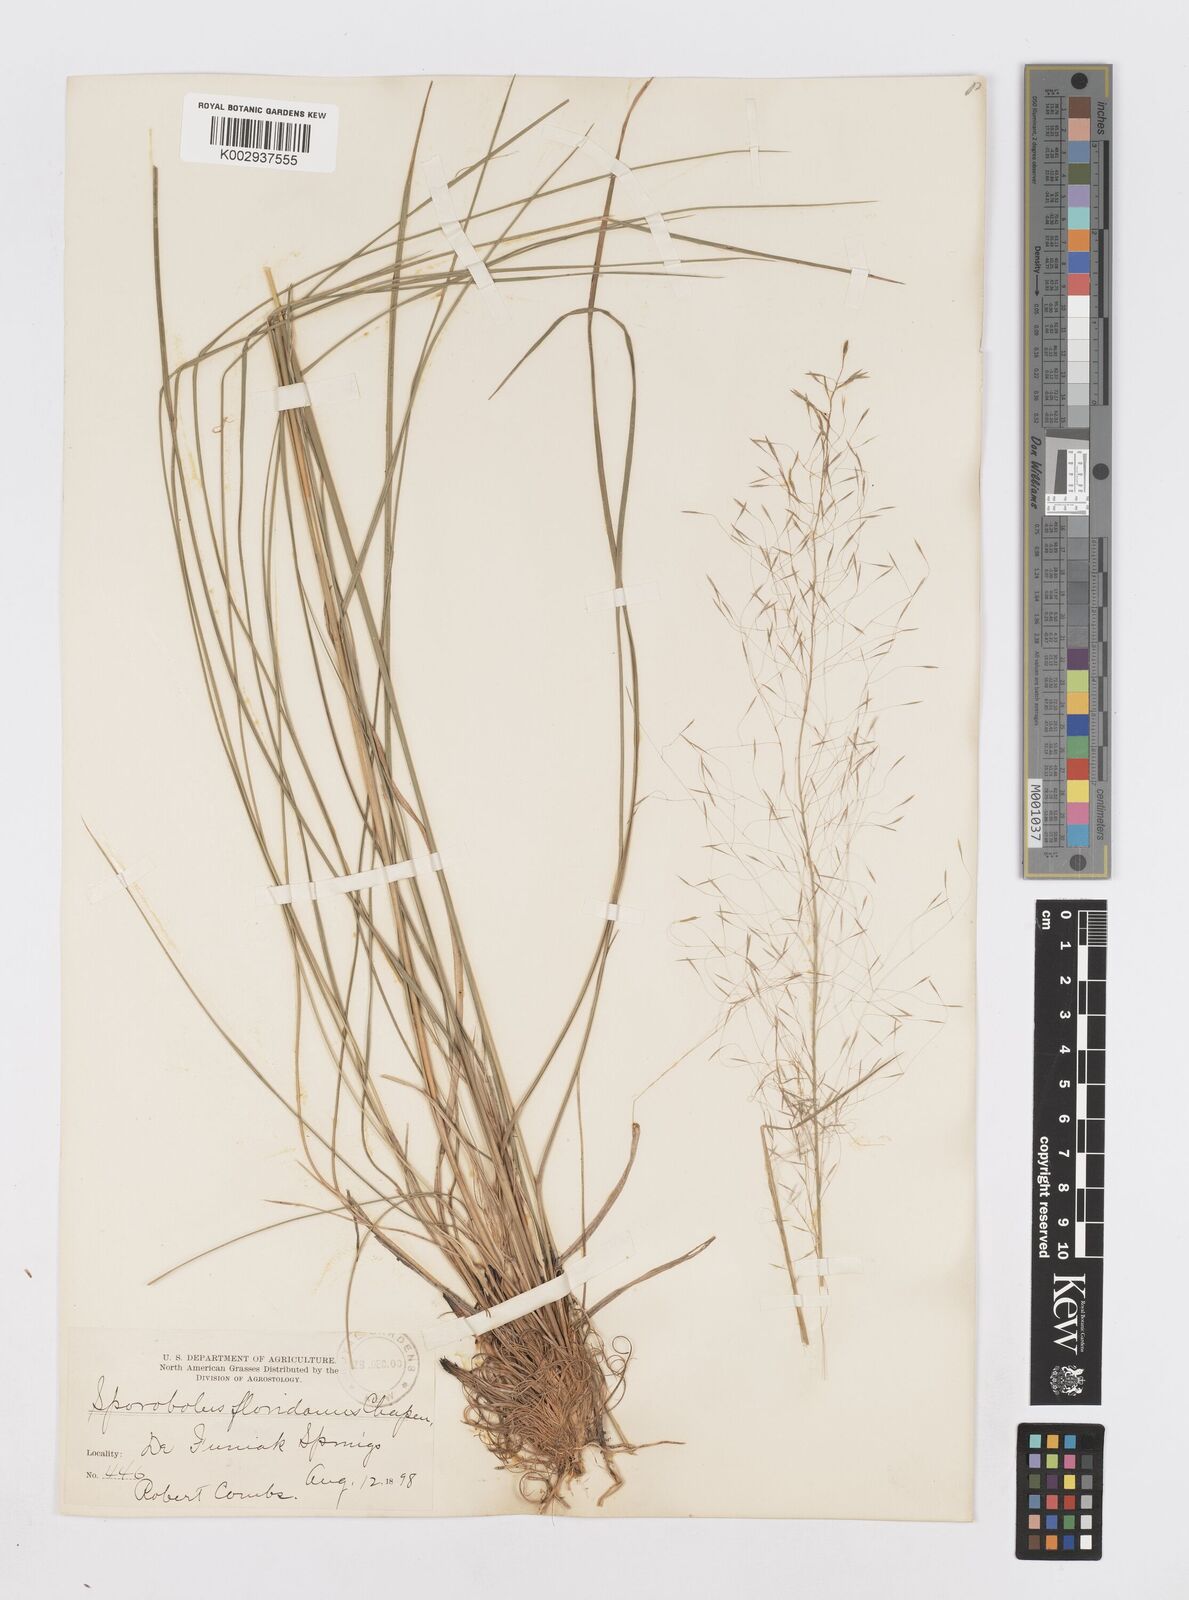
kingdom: Plantae
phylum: Tracheophyta
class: Liliopsida
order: Poales
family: Poaceae
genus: Sporobolus
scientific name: Sporobolus floridanus
